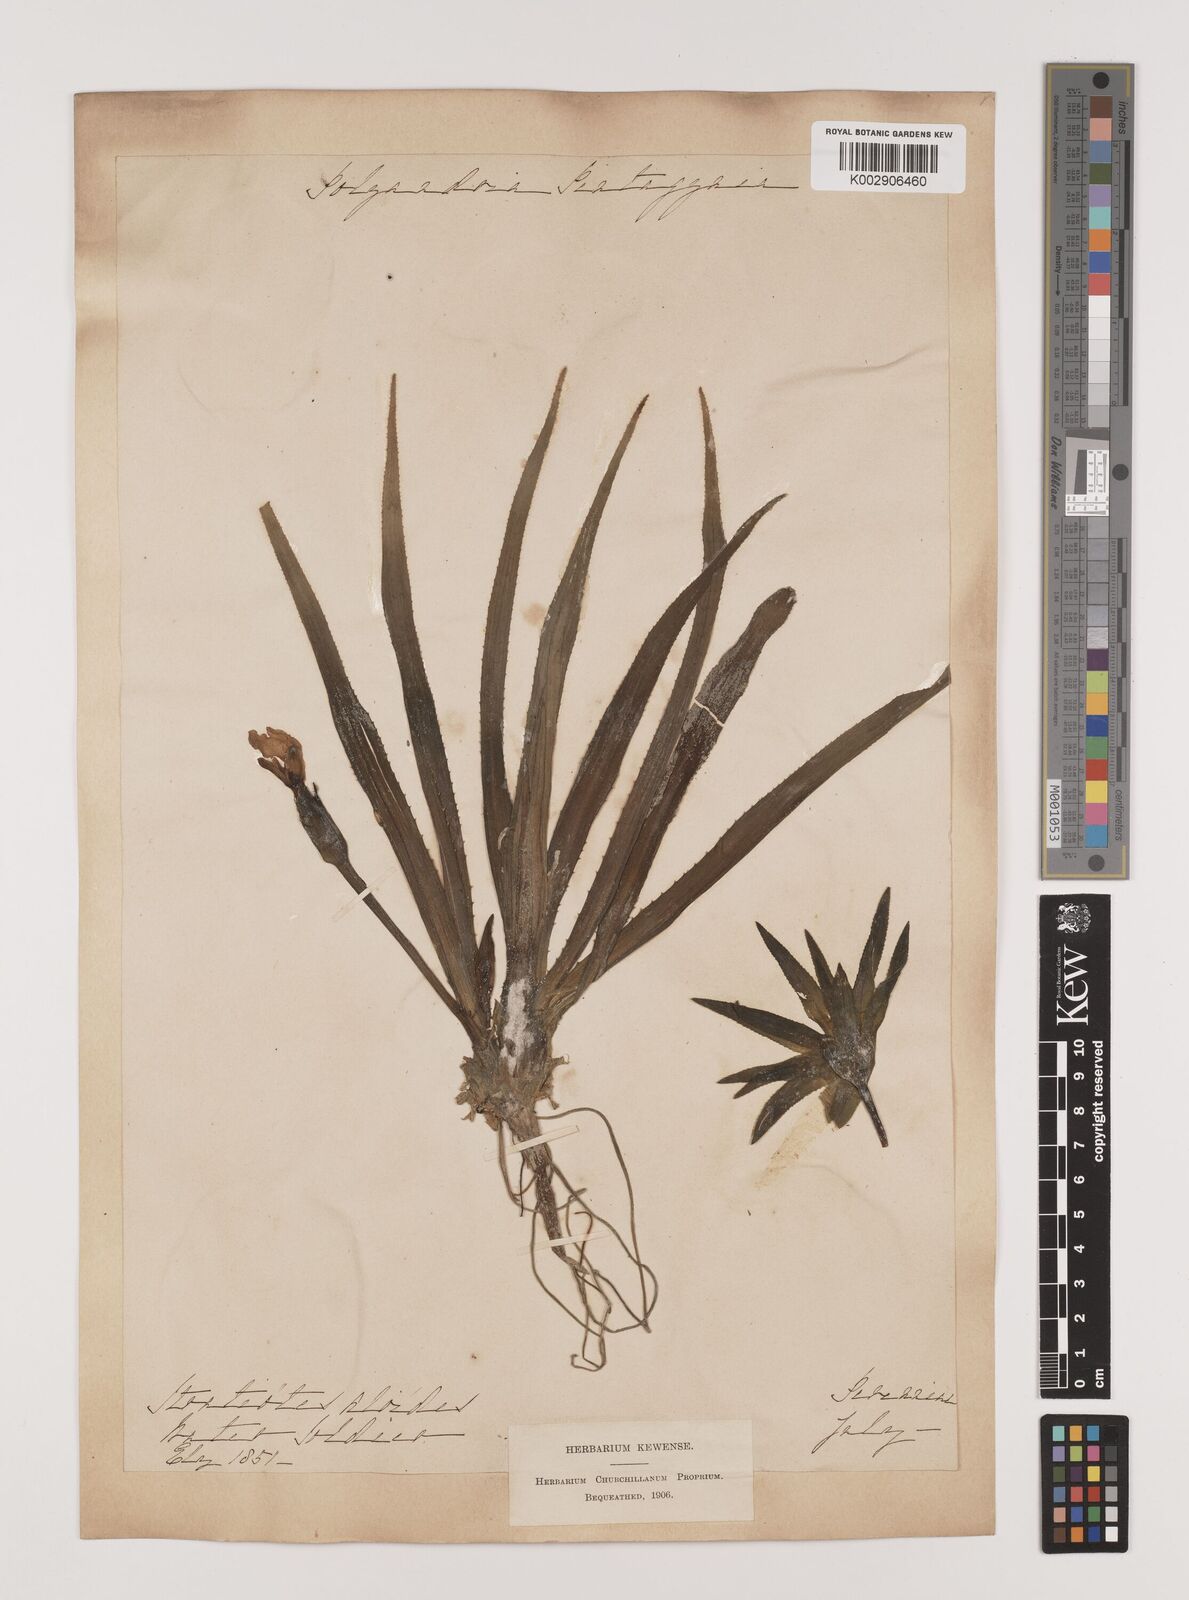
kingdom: Plantae
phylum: Tracheophyta
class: Liliopsida
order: Alismatales
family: Hydrocharitaceae
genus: Stratiotes
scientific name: Stratiotes aloides
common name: Water-soldier
